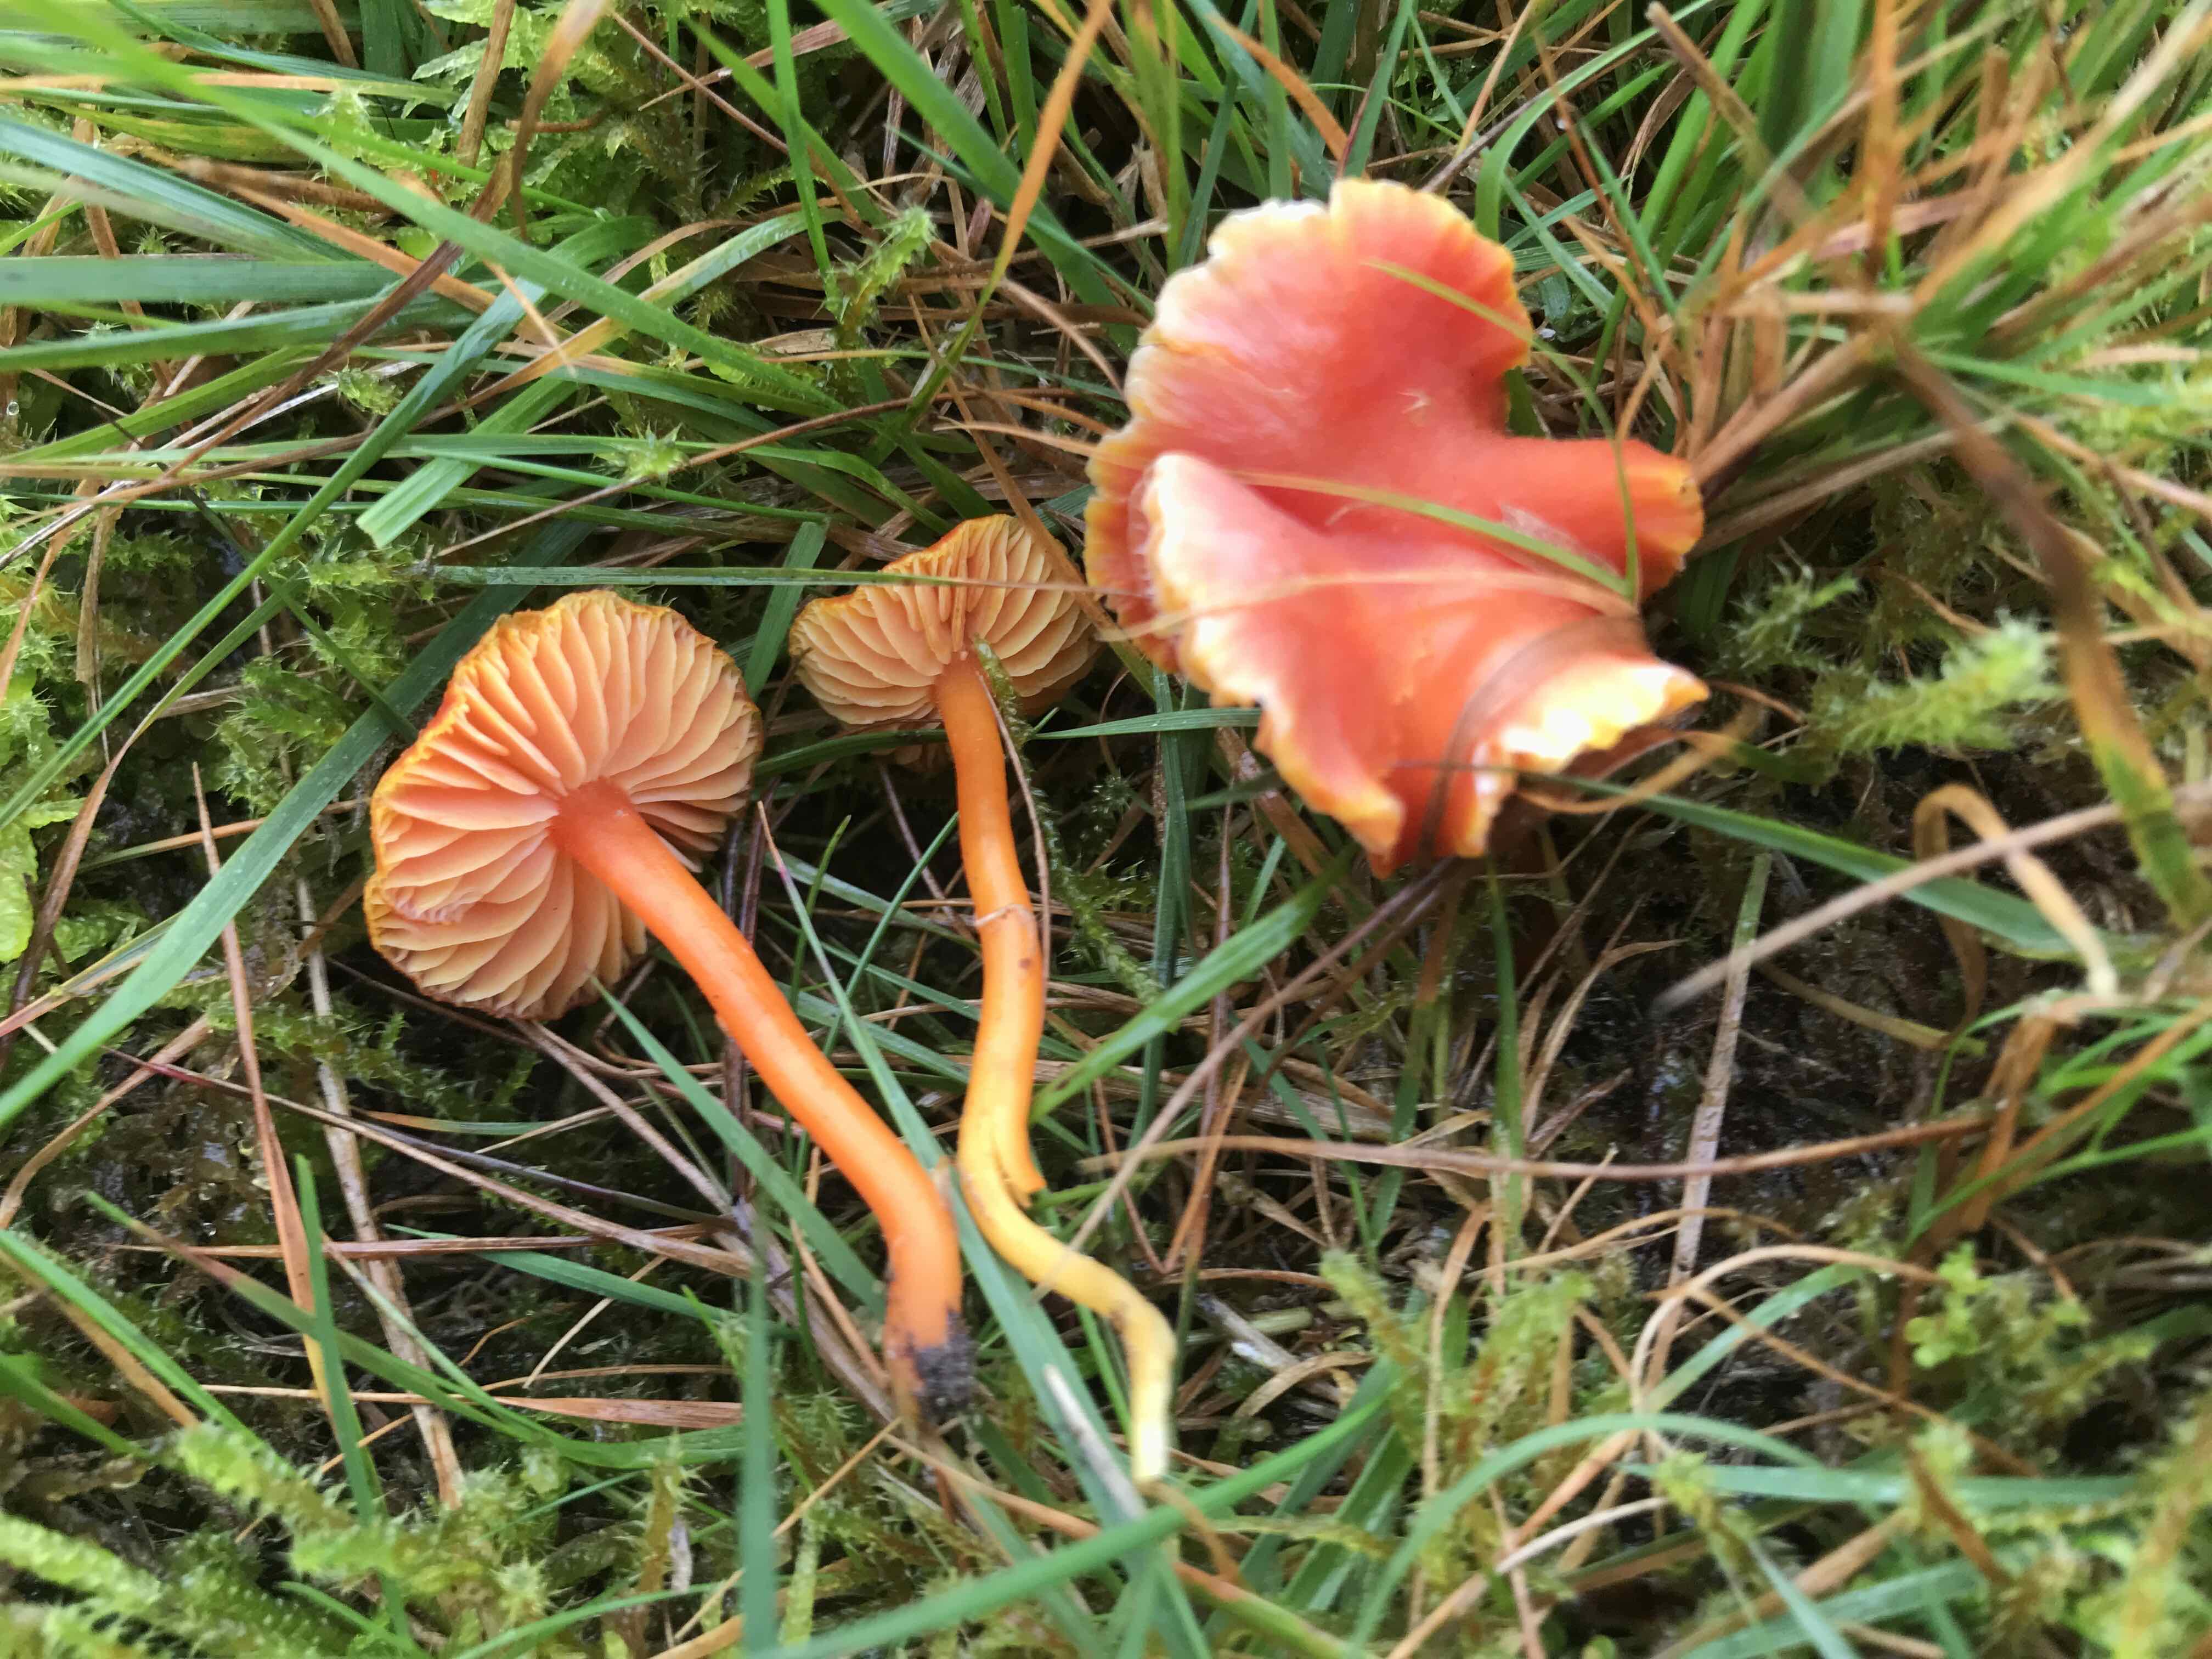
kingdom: Fungi
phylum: Basidiomycota
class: Agaricomycetes
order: Agaricales
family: Hygrophoraceae
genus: Hygrocybe
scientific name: Hygrocybe reidii
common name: honning-vokshat
